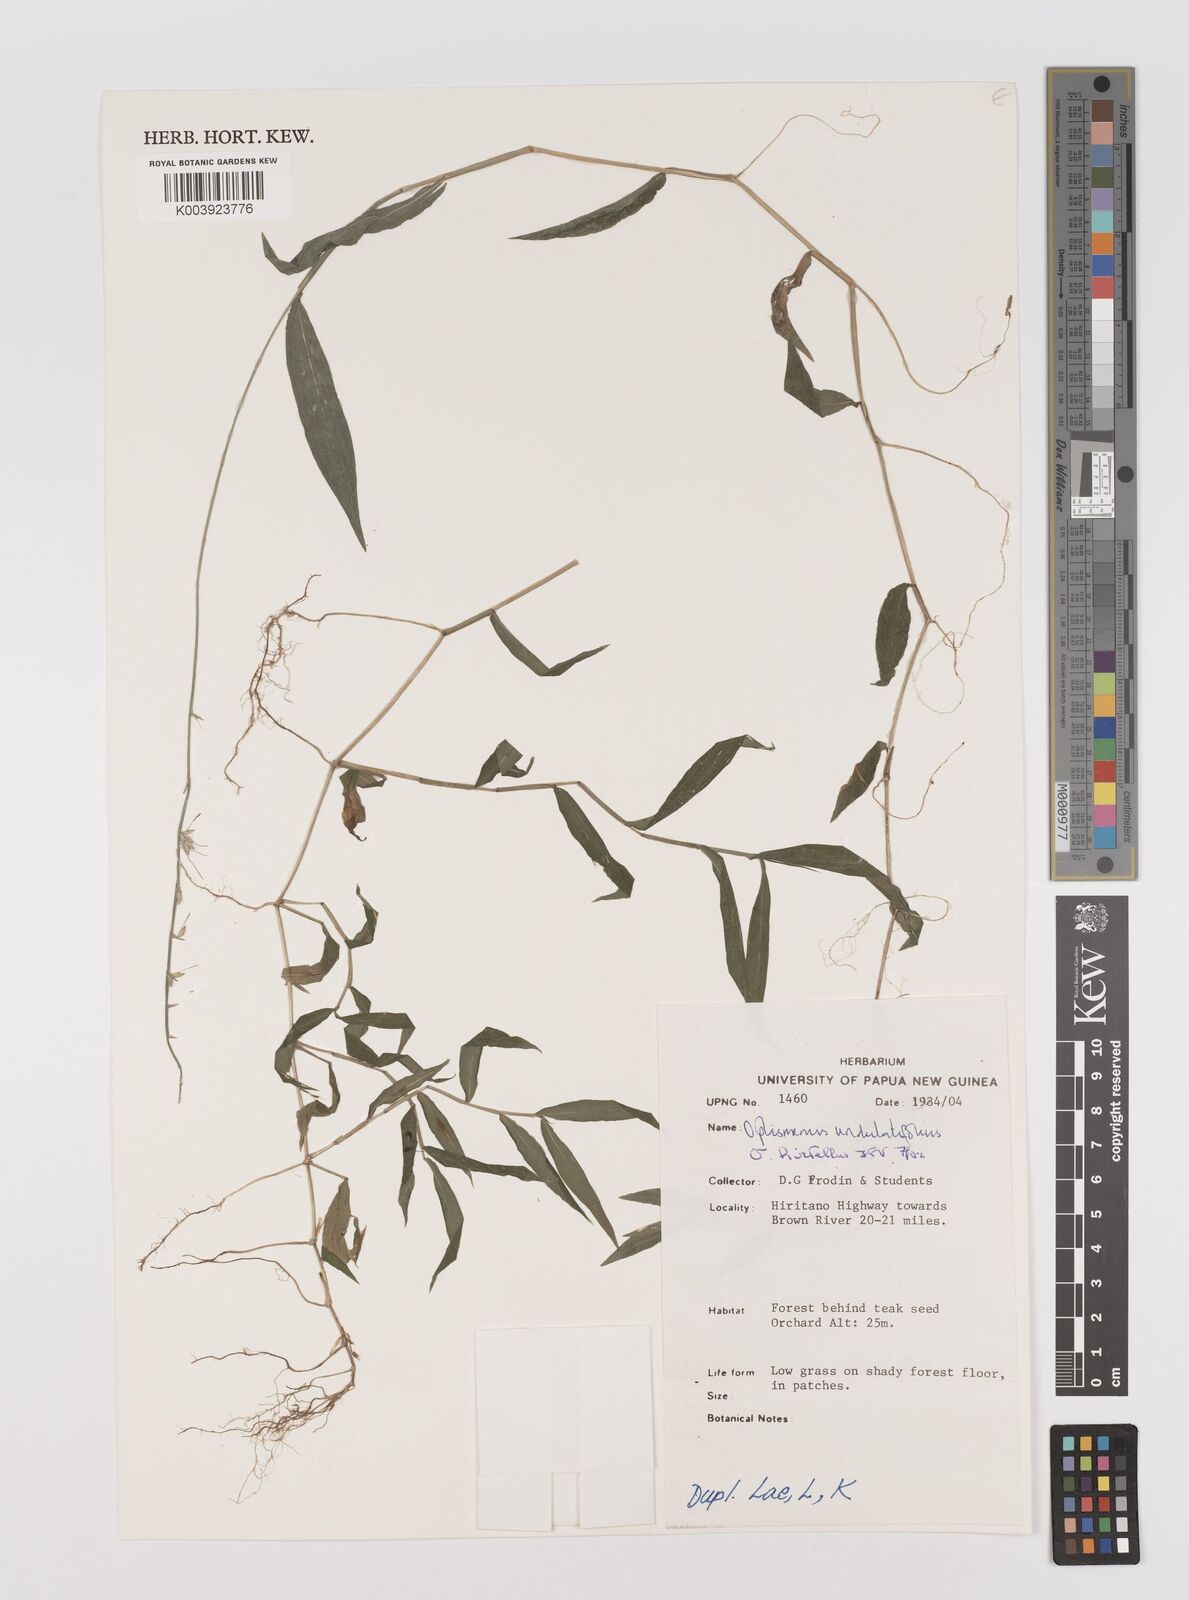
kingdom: Plantae
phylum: Tracheophyta
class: Liliopsida
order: Poales
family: Poaceae
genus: Oplismenus
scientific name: Oplismenus hirtellus
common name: Basketgrass
